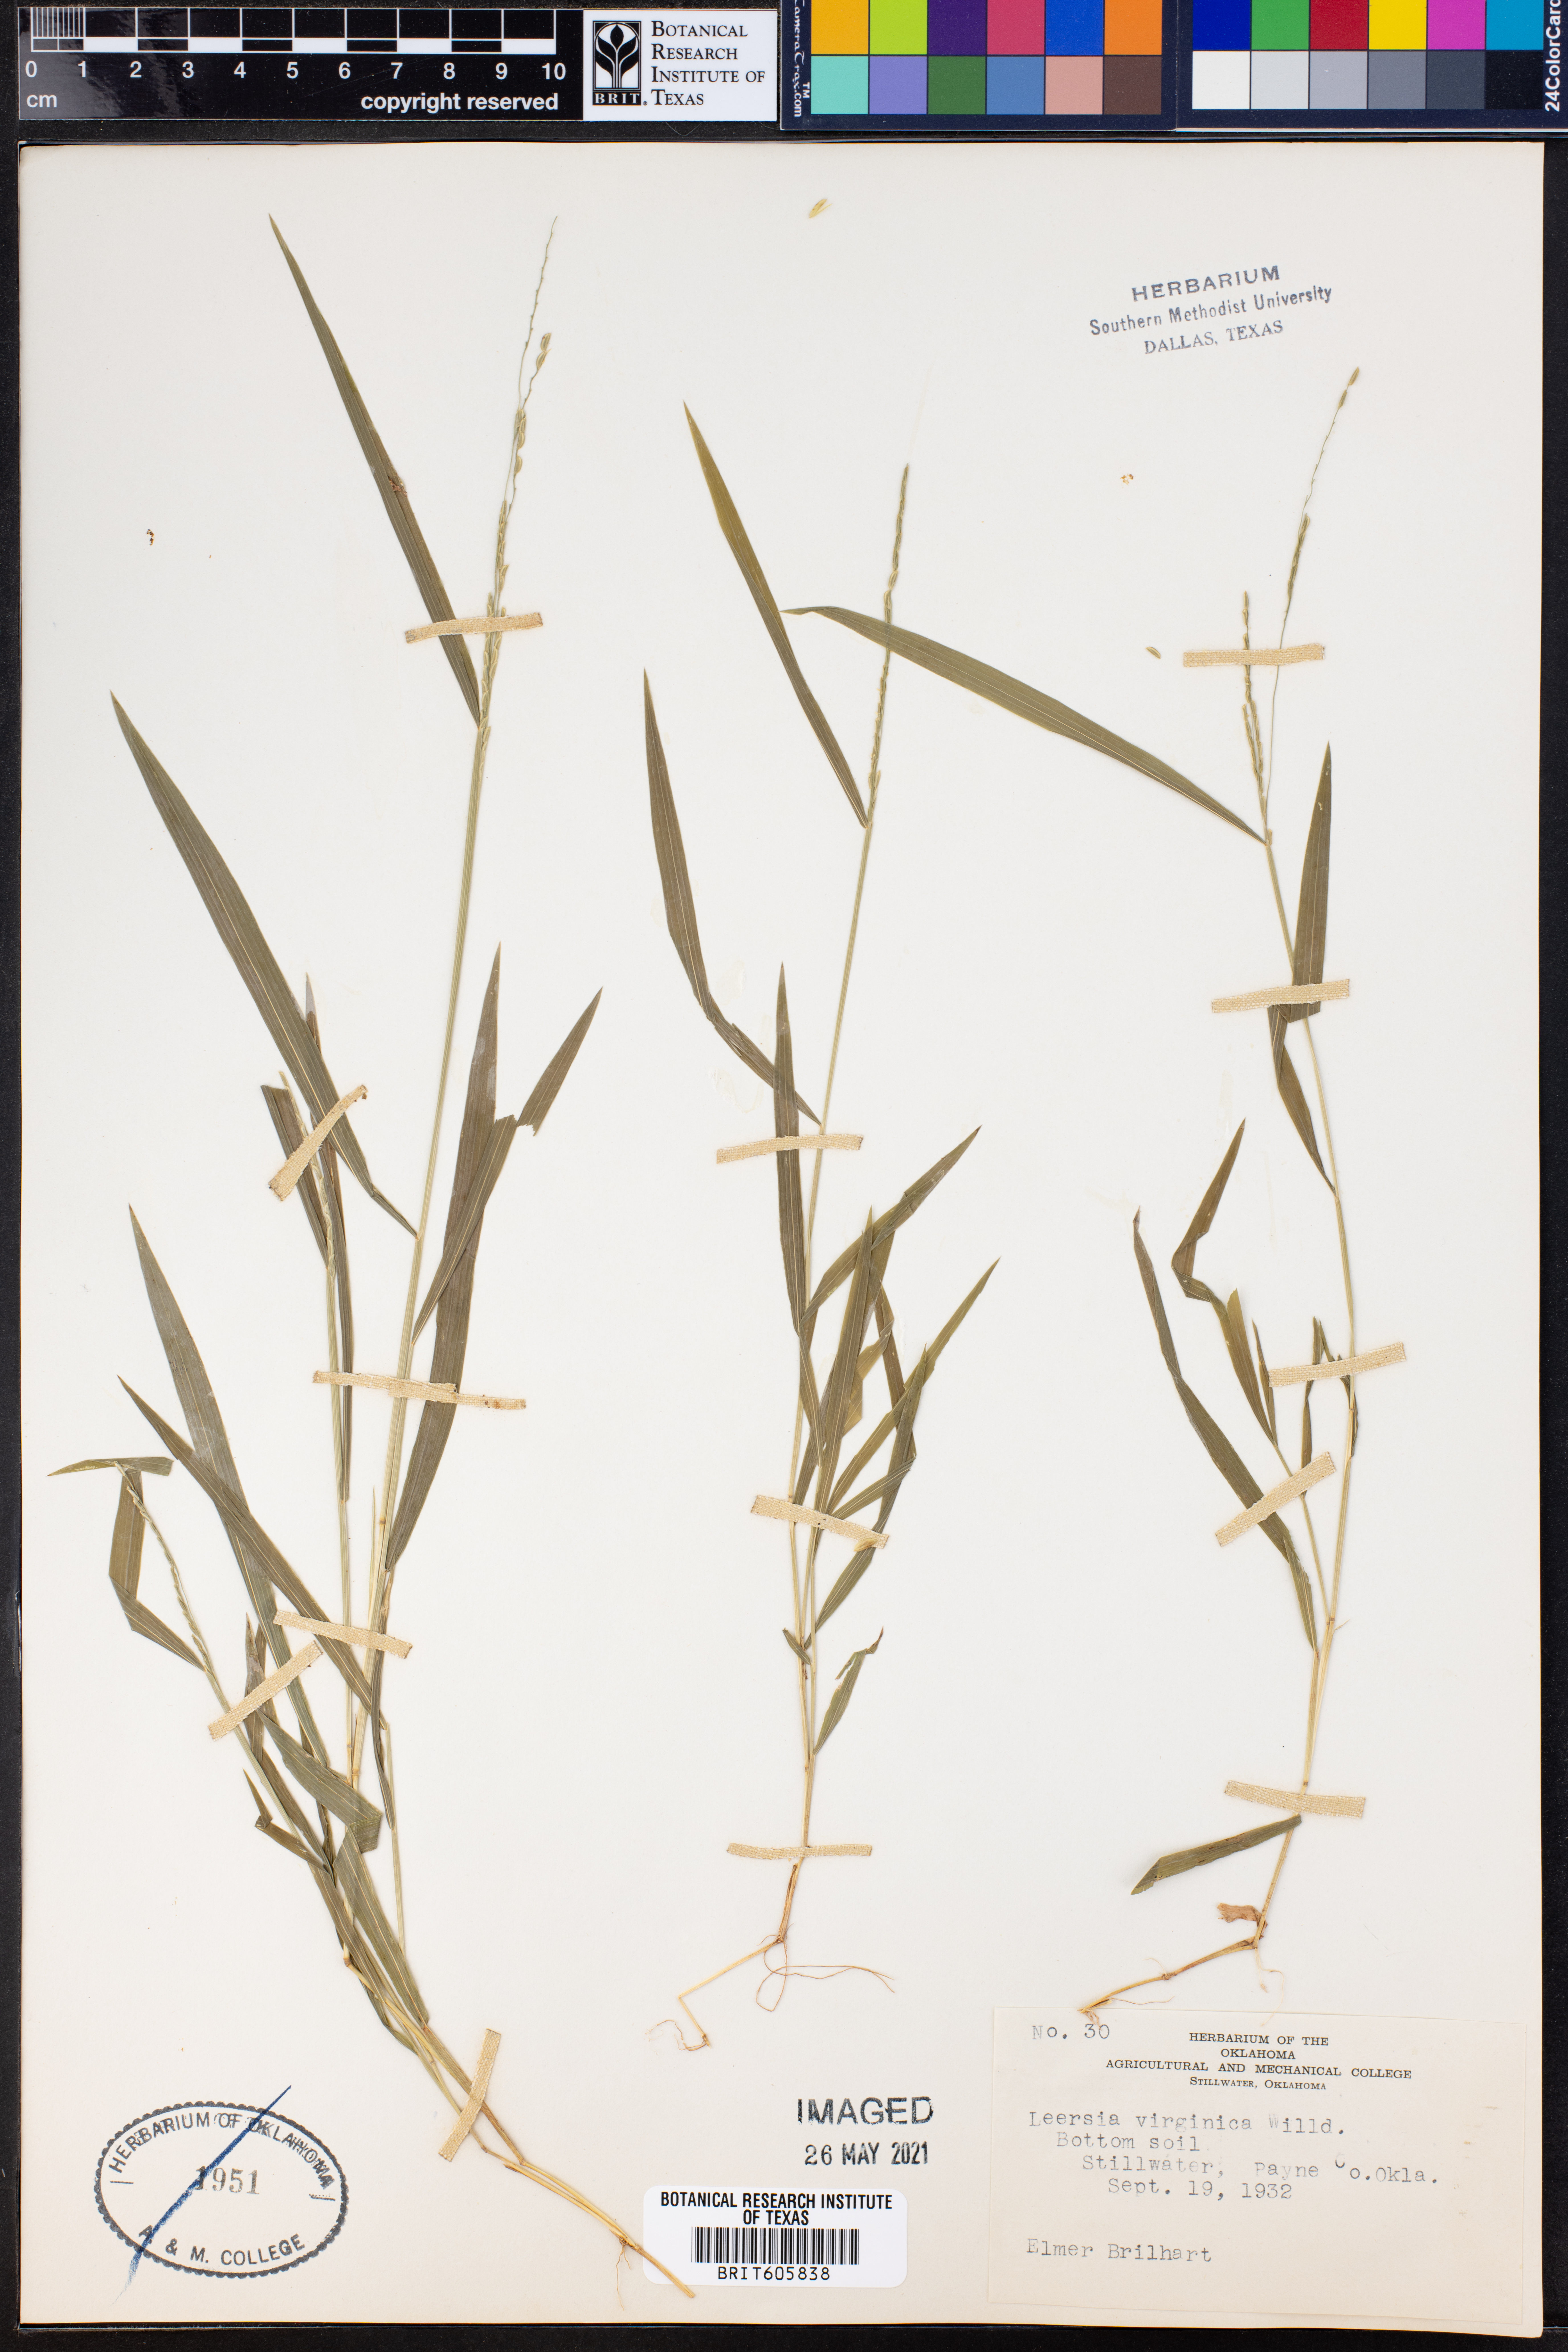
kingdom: Plantae
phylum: Tracheophyta
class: Liliopsida
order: Poales
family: Poaceae
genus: Leersia
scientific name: Leersia virginica
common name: White cutgrass
